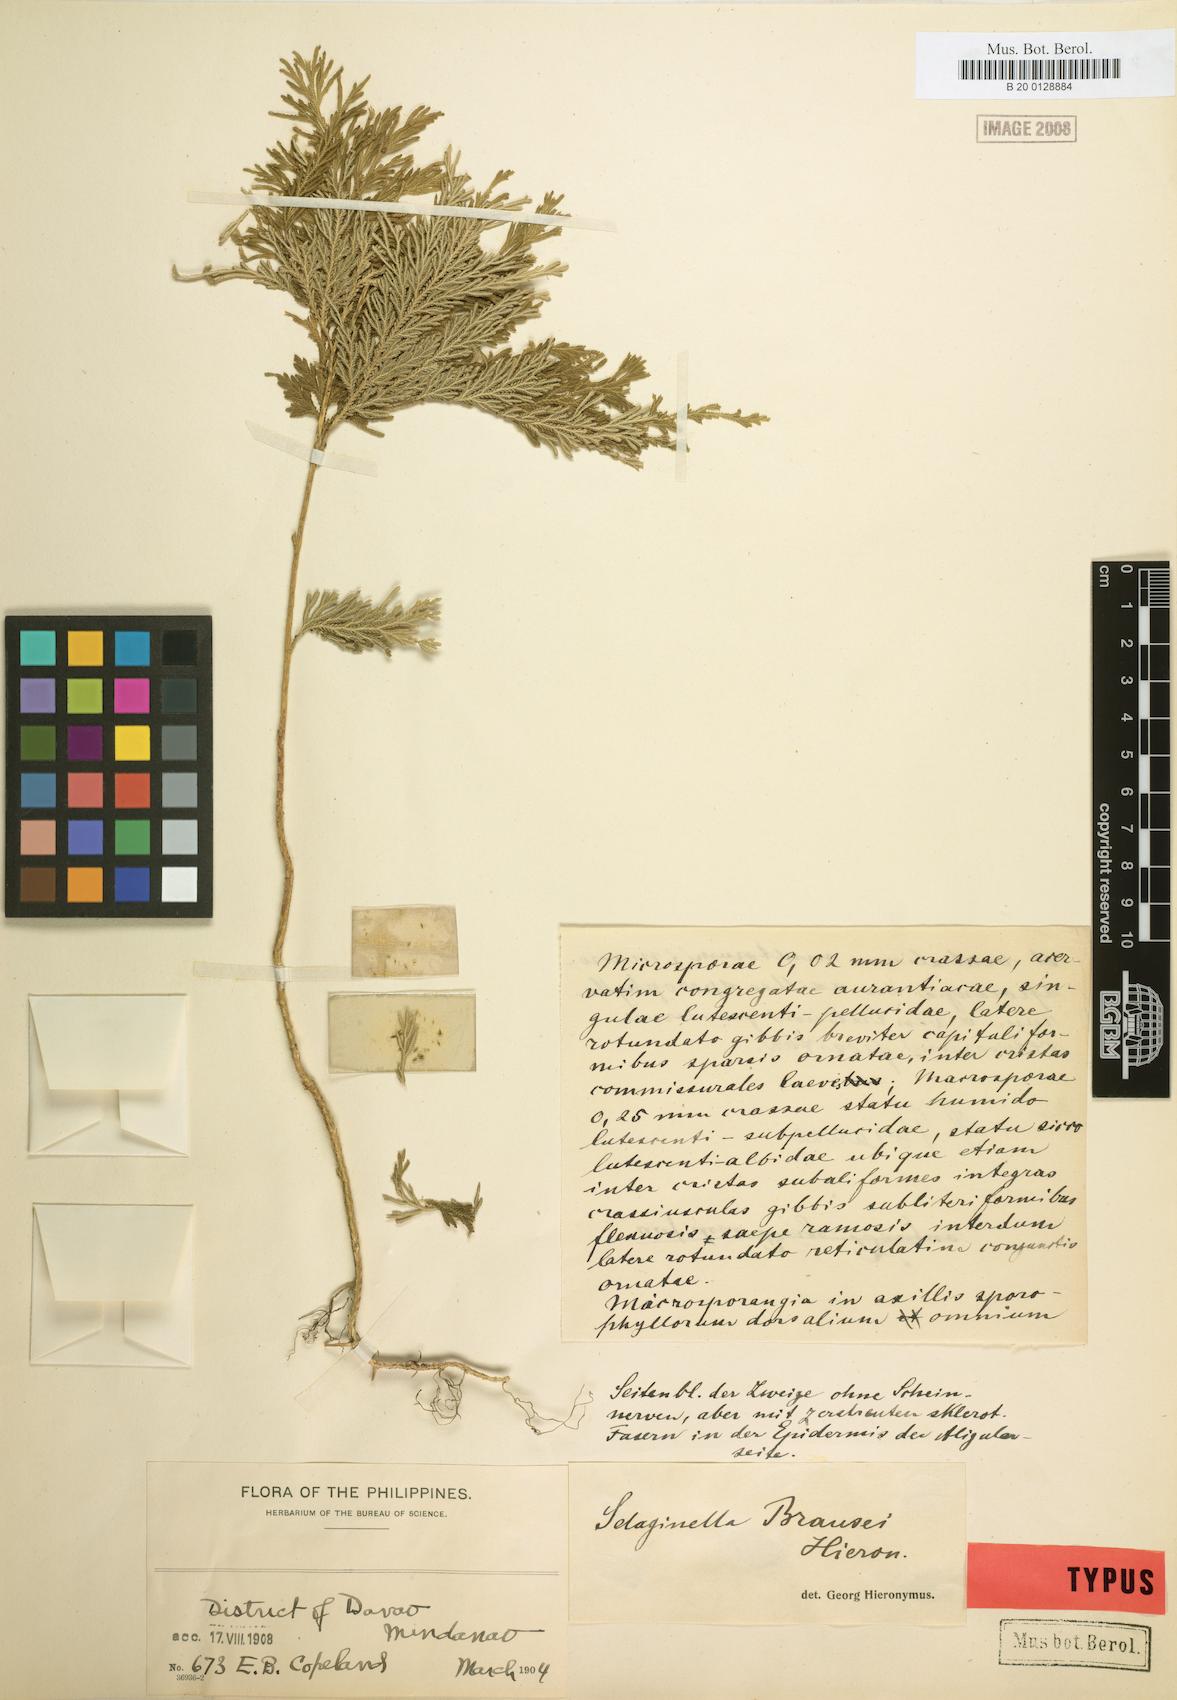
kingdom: Plantae
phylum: Tracheophyta
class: Lycopodiopsida
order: Selaginellales
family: Selaginellaceae
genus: Selaginella
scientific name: Selaginella cupressina
